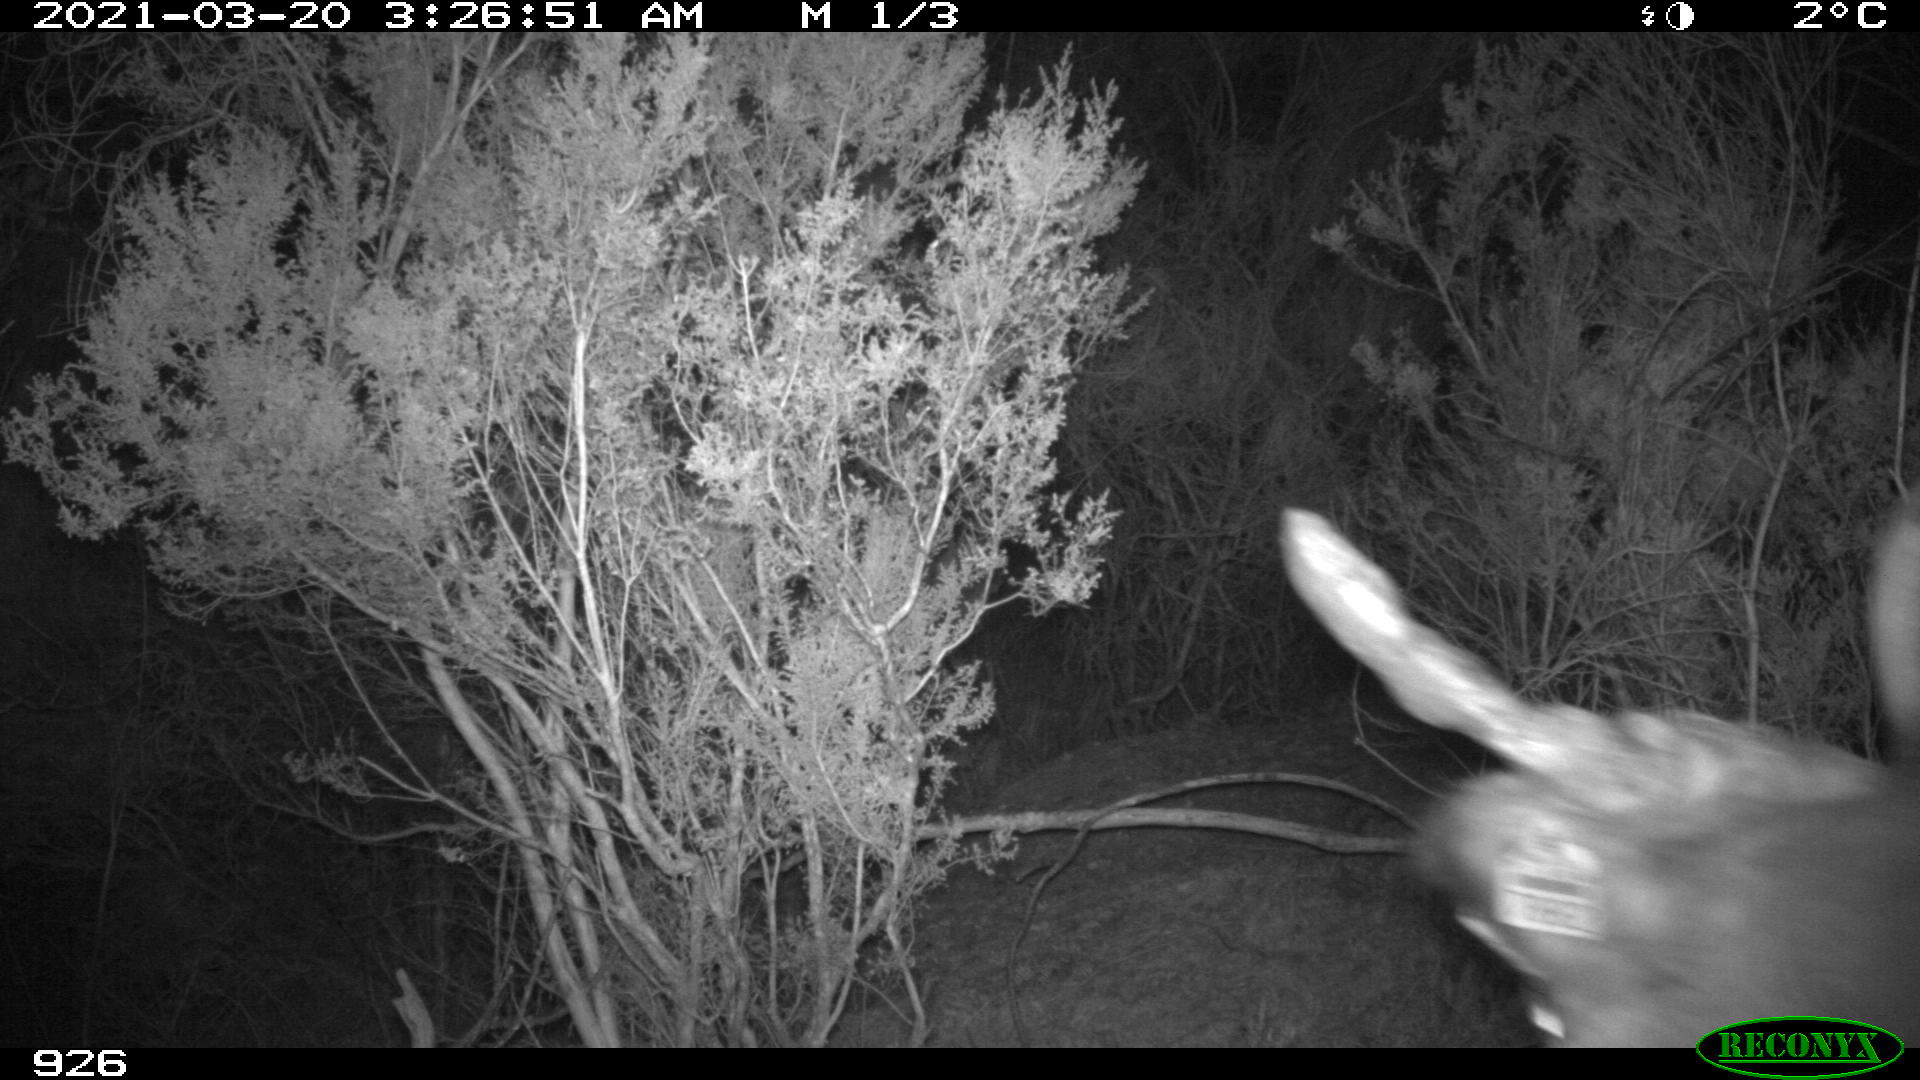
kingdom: Animalia
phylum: Chordata
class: Mammalia
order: Artiodactyla
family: Bovidae
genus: Bos
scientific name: Bos taurus
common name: Domesticated cattle
